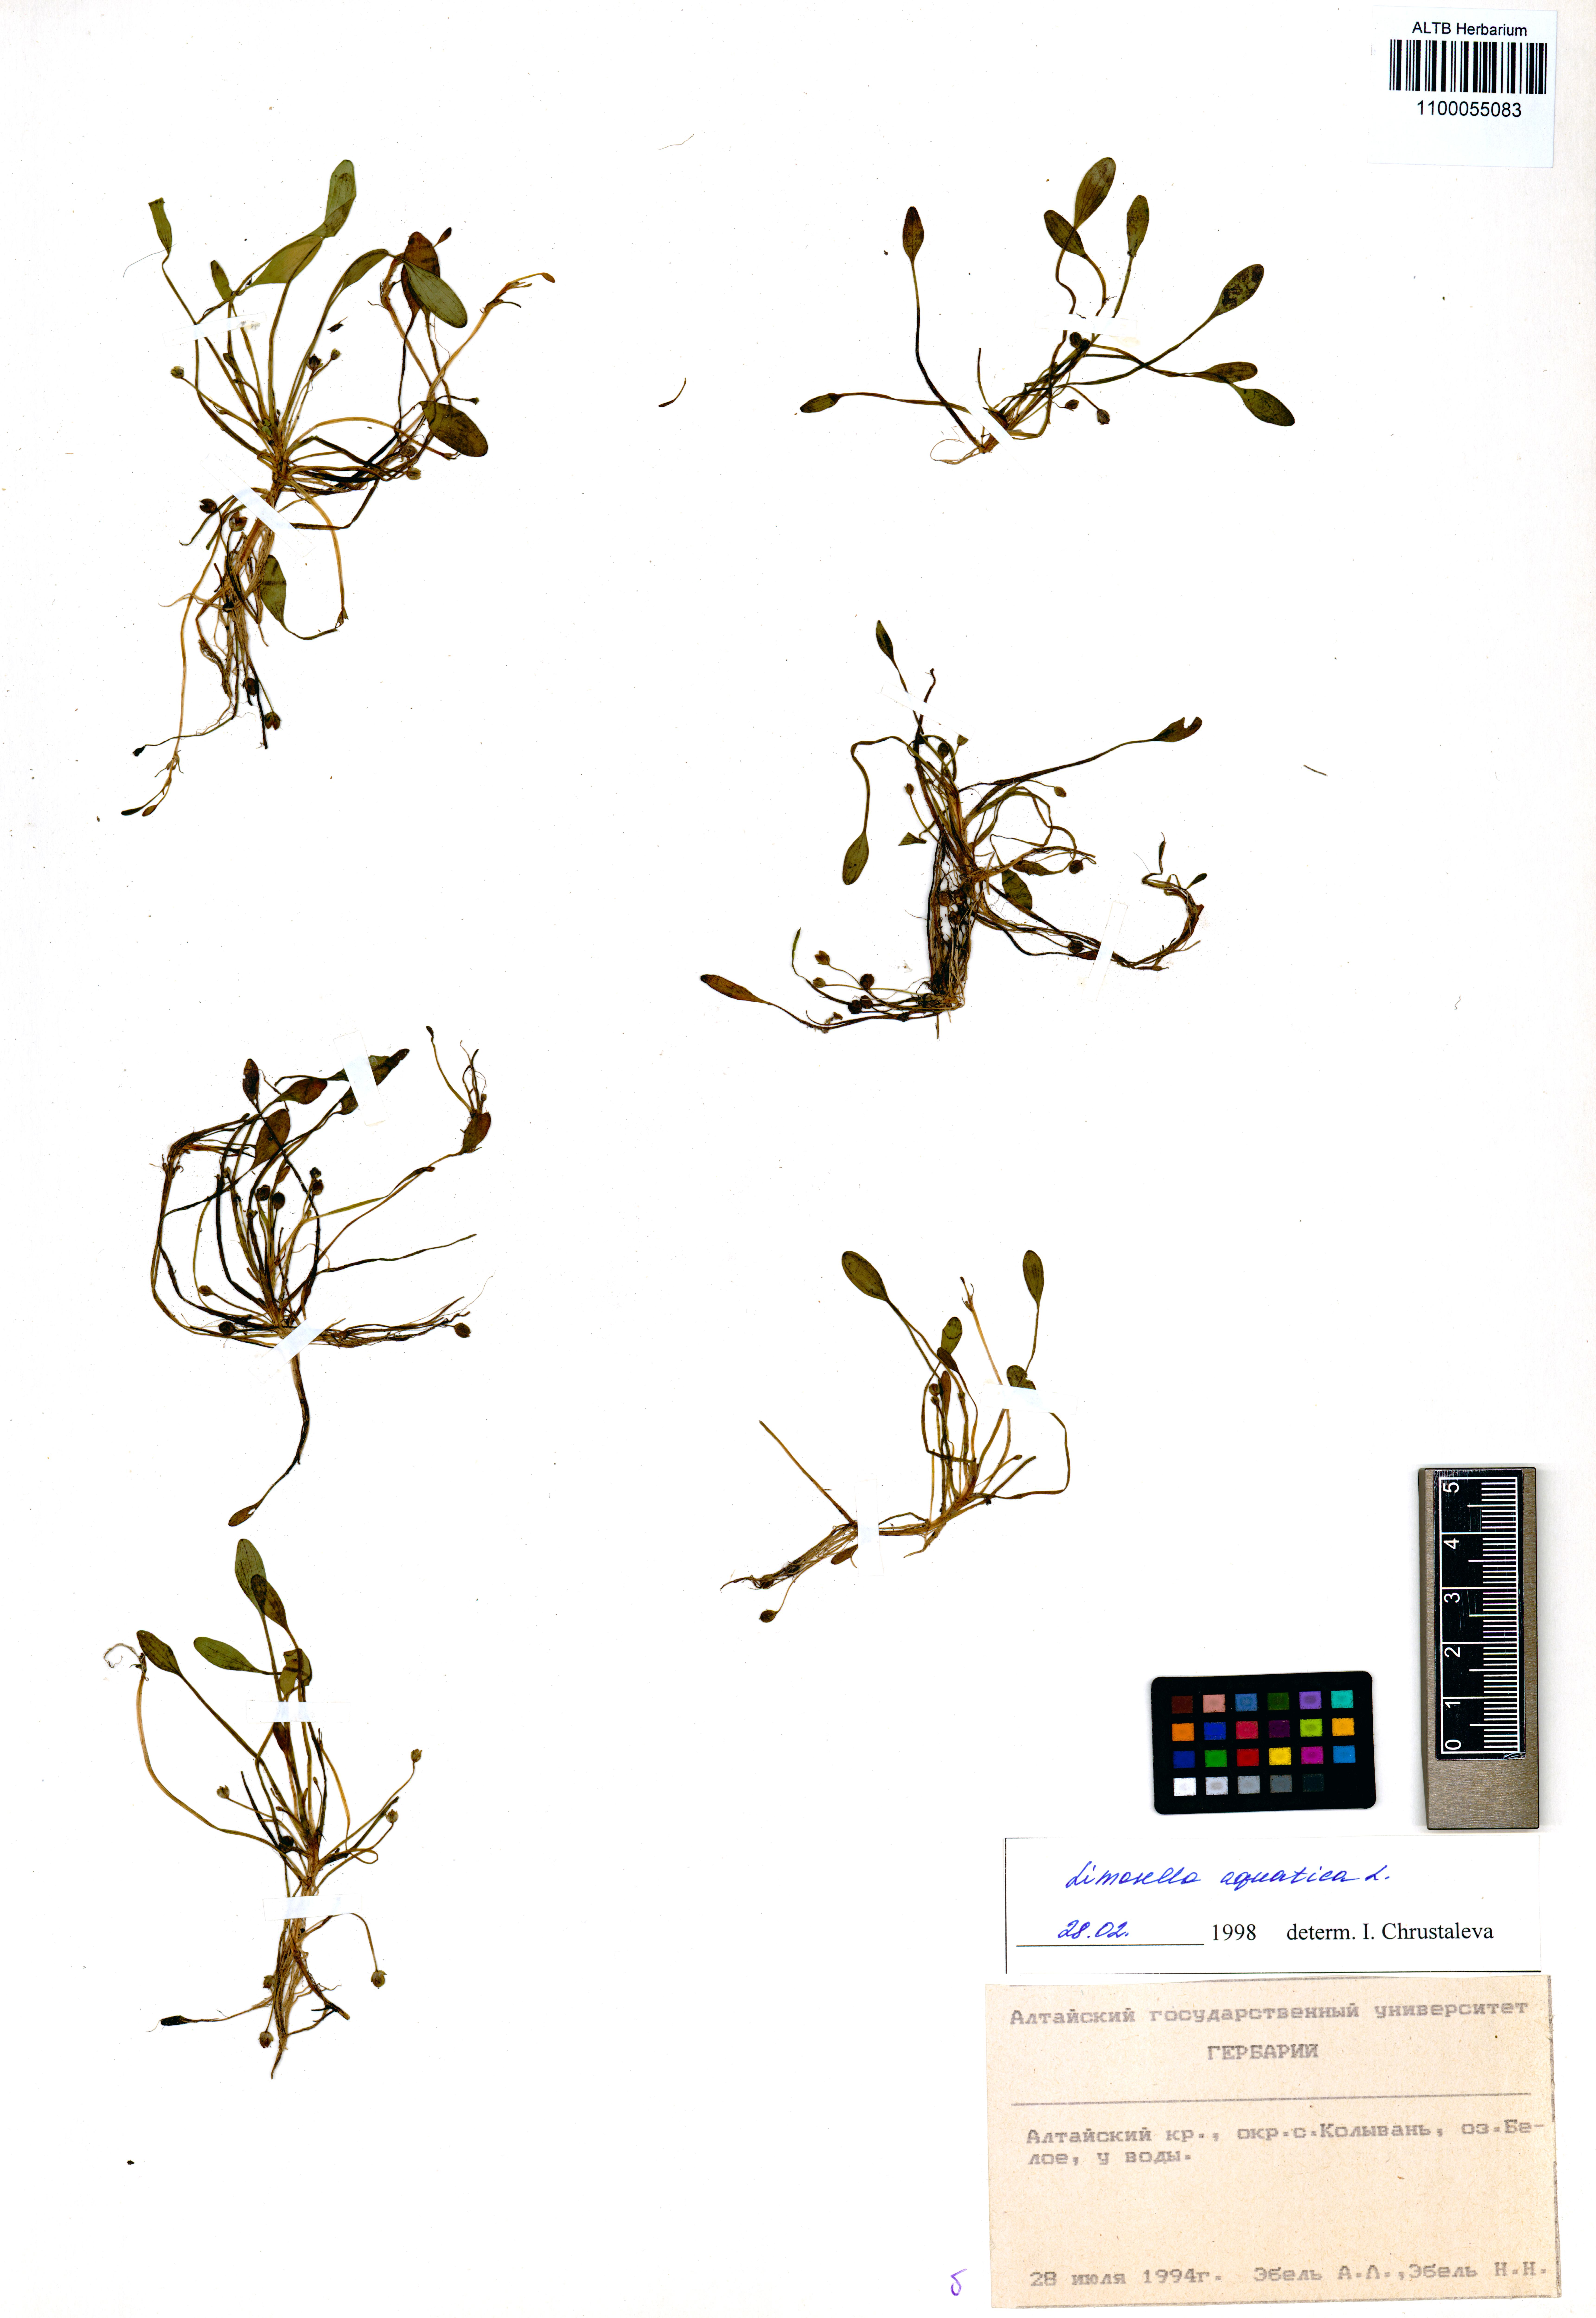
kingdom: Plantae
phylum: Tracheophyta
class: Magnoliopsida
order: Lamiales
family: Scrophulariaceae
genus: Limosella
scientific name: Limosella aquatica
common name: Mudwort
